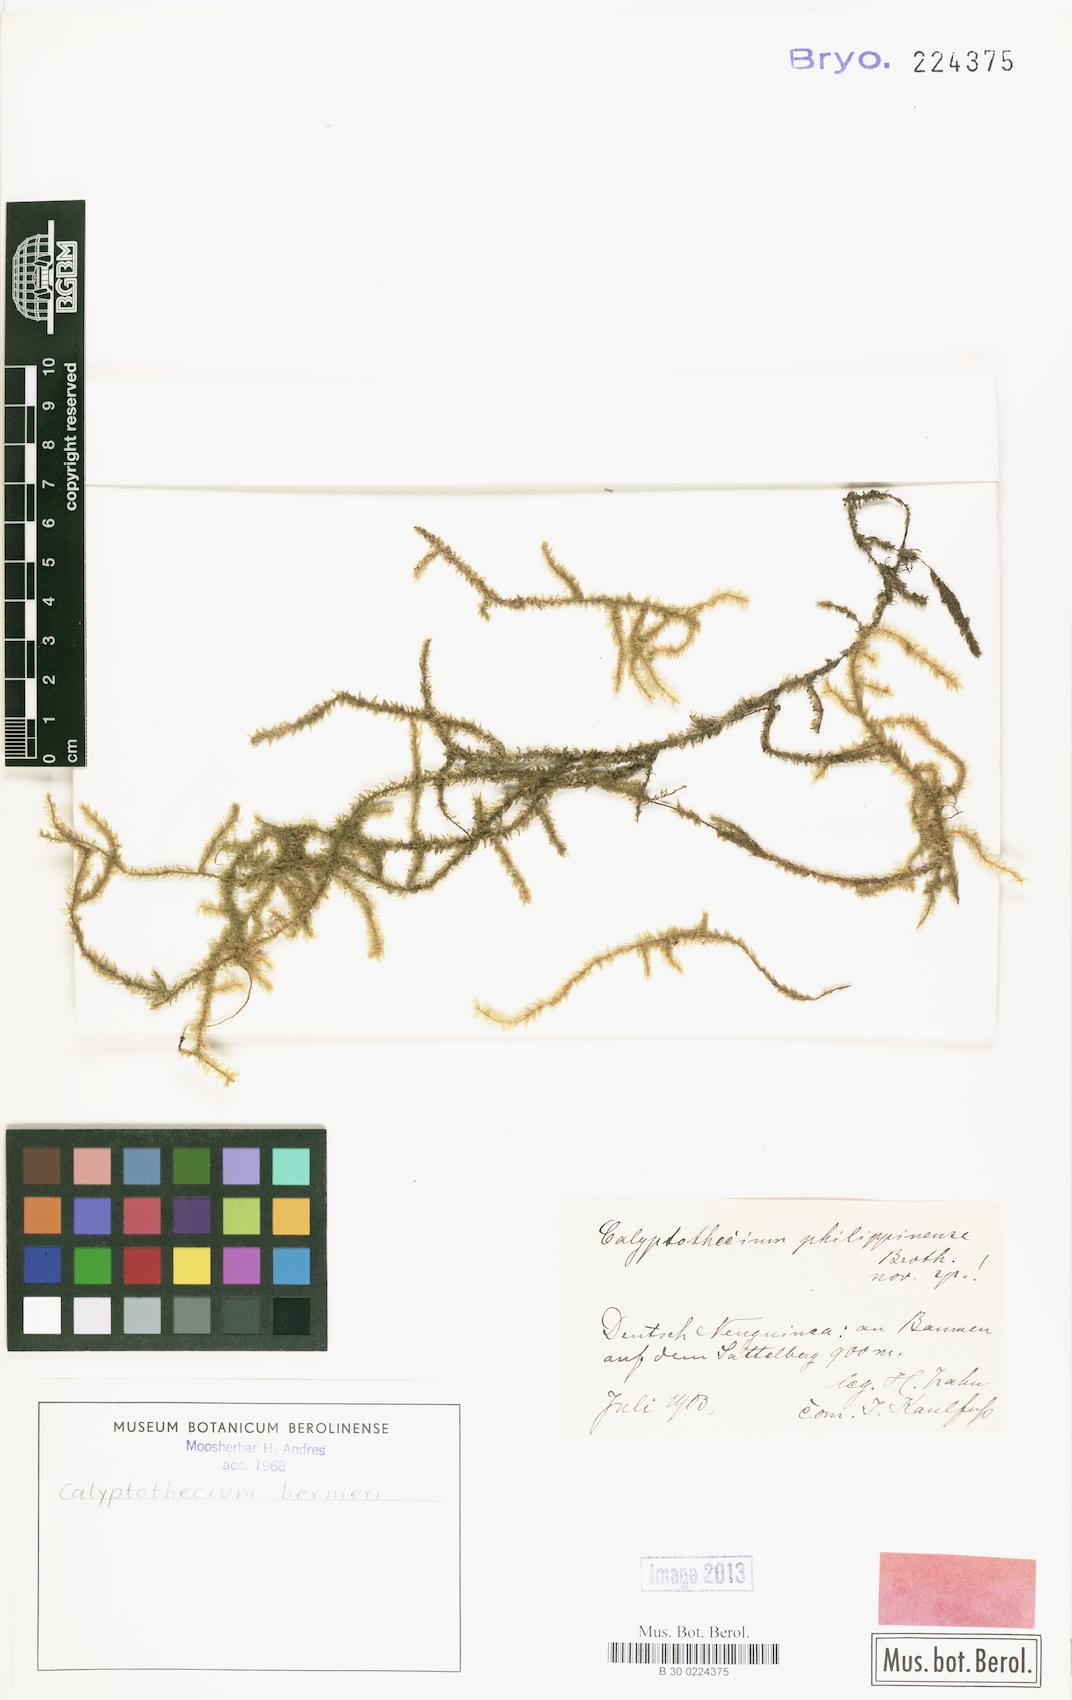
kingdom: Plantae
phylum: Bryophyta
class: Bryopsida
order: Hypnales
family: Pterobryaceae
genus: Calyptothecium
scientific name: Calyptothecium philippinense
